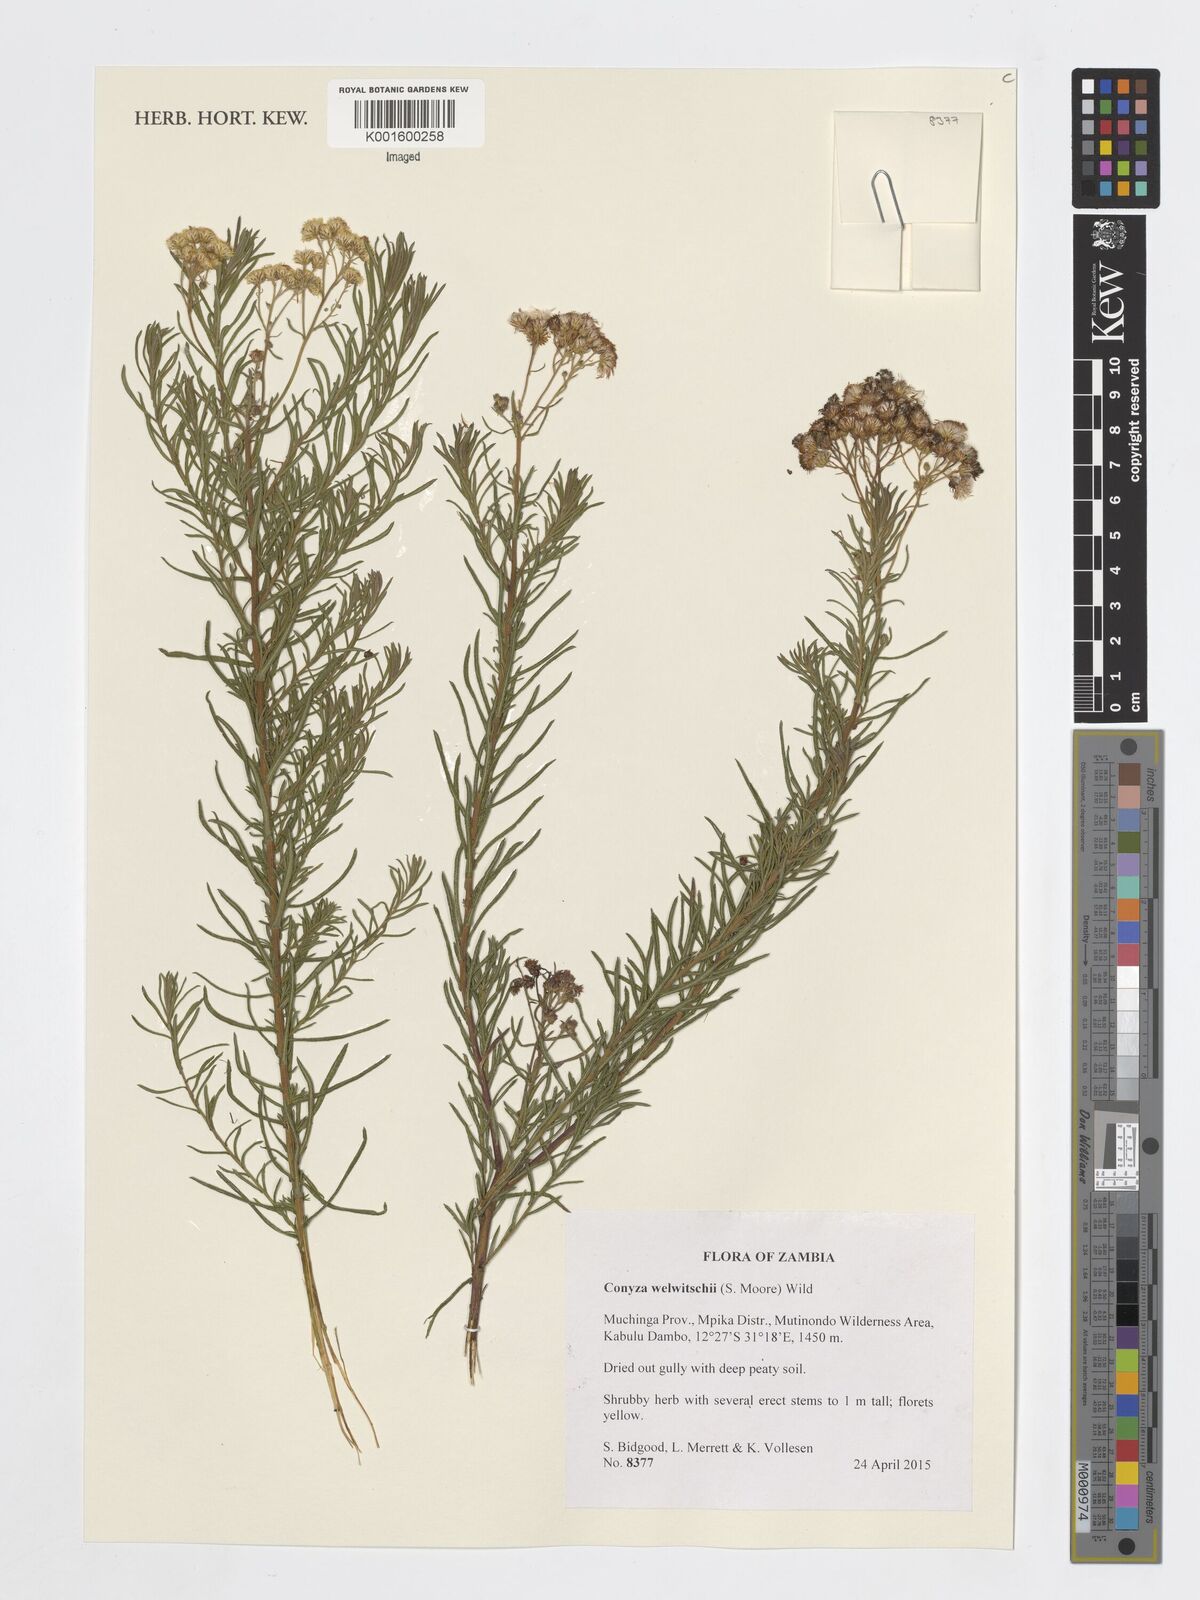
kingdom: Plantae
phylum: Tracheophyta
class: Magnoliopsida
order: Asterales
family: Asteraceae
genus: Nidorella
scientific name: Nidorella welwitschii
